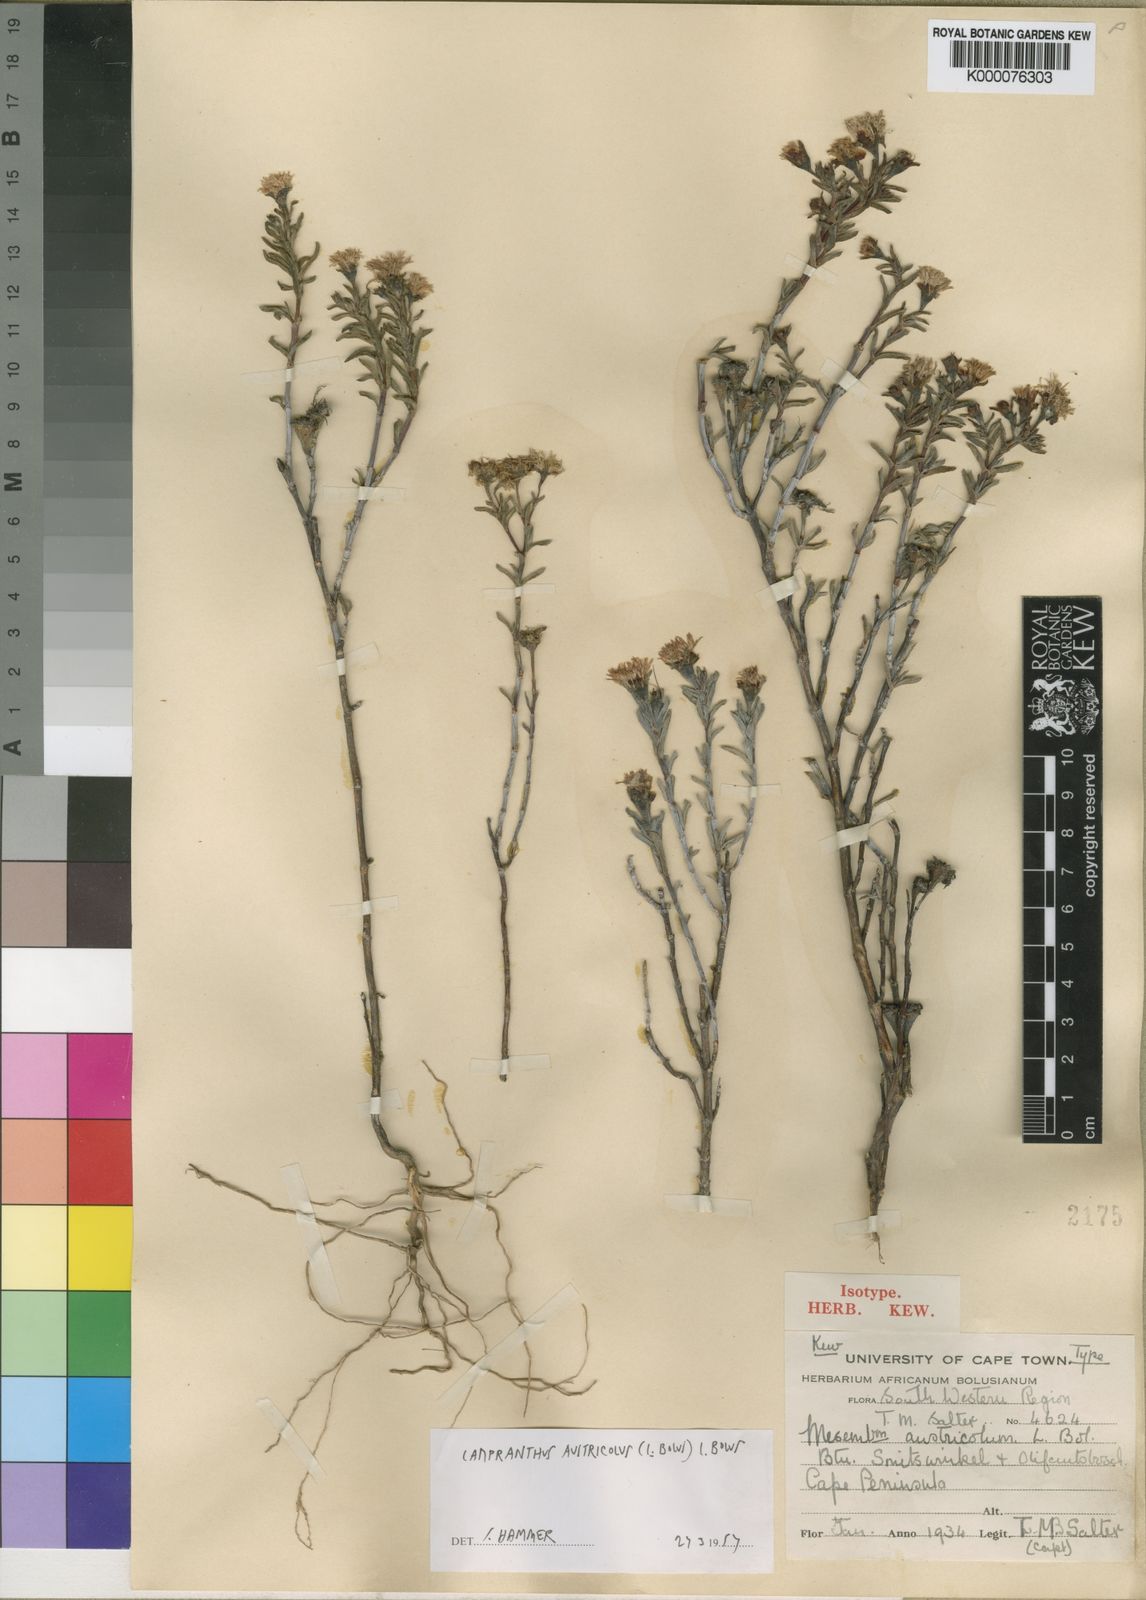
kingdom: Plantae
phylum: Tracheophyta
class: Magnoliopsida
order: Caryophyllales
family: Aizoaceae
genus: Lampranthus
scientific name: Lampranthus austricola
